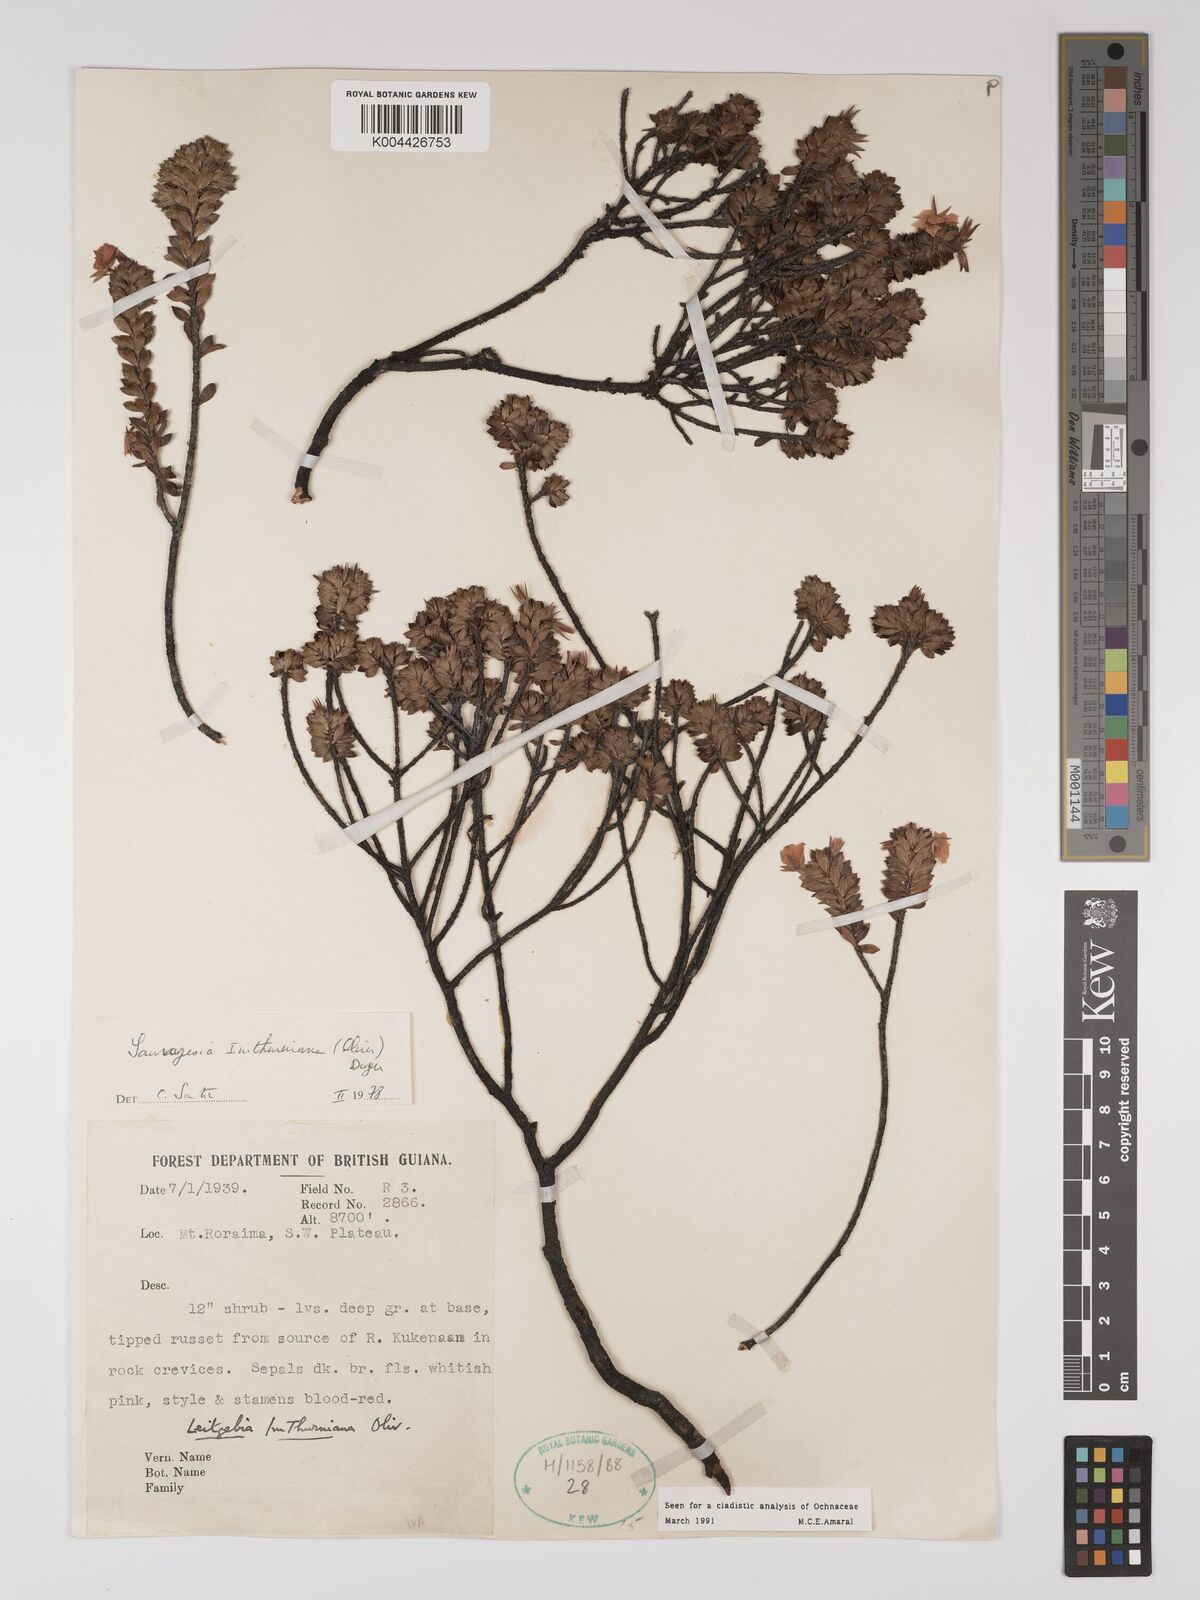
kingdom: Plantae
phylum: Tracheophyta
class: Magnoliopsida
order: Malpighiales
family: Ochnaceae
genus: Sauvagesia
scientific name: Sauvagesia imthurniana
